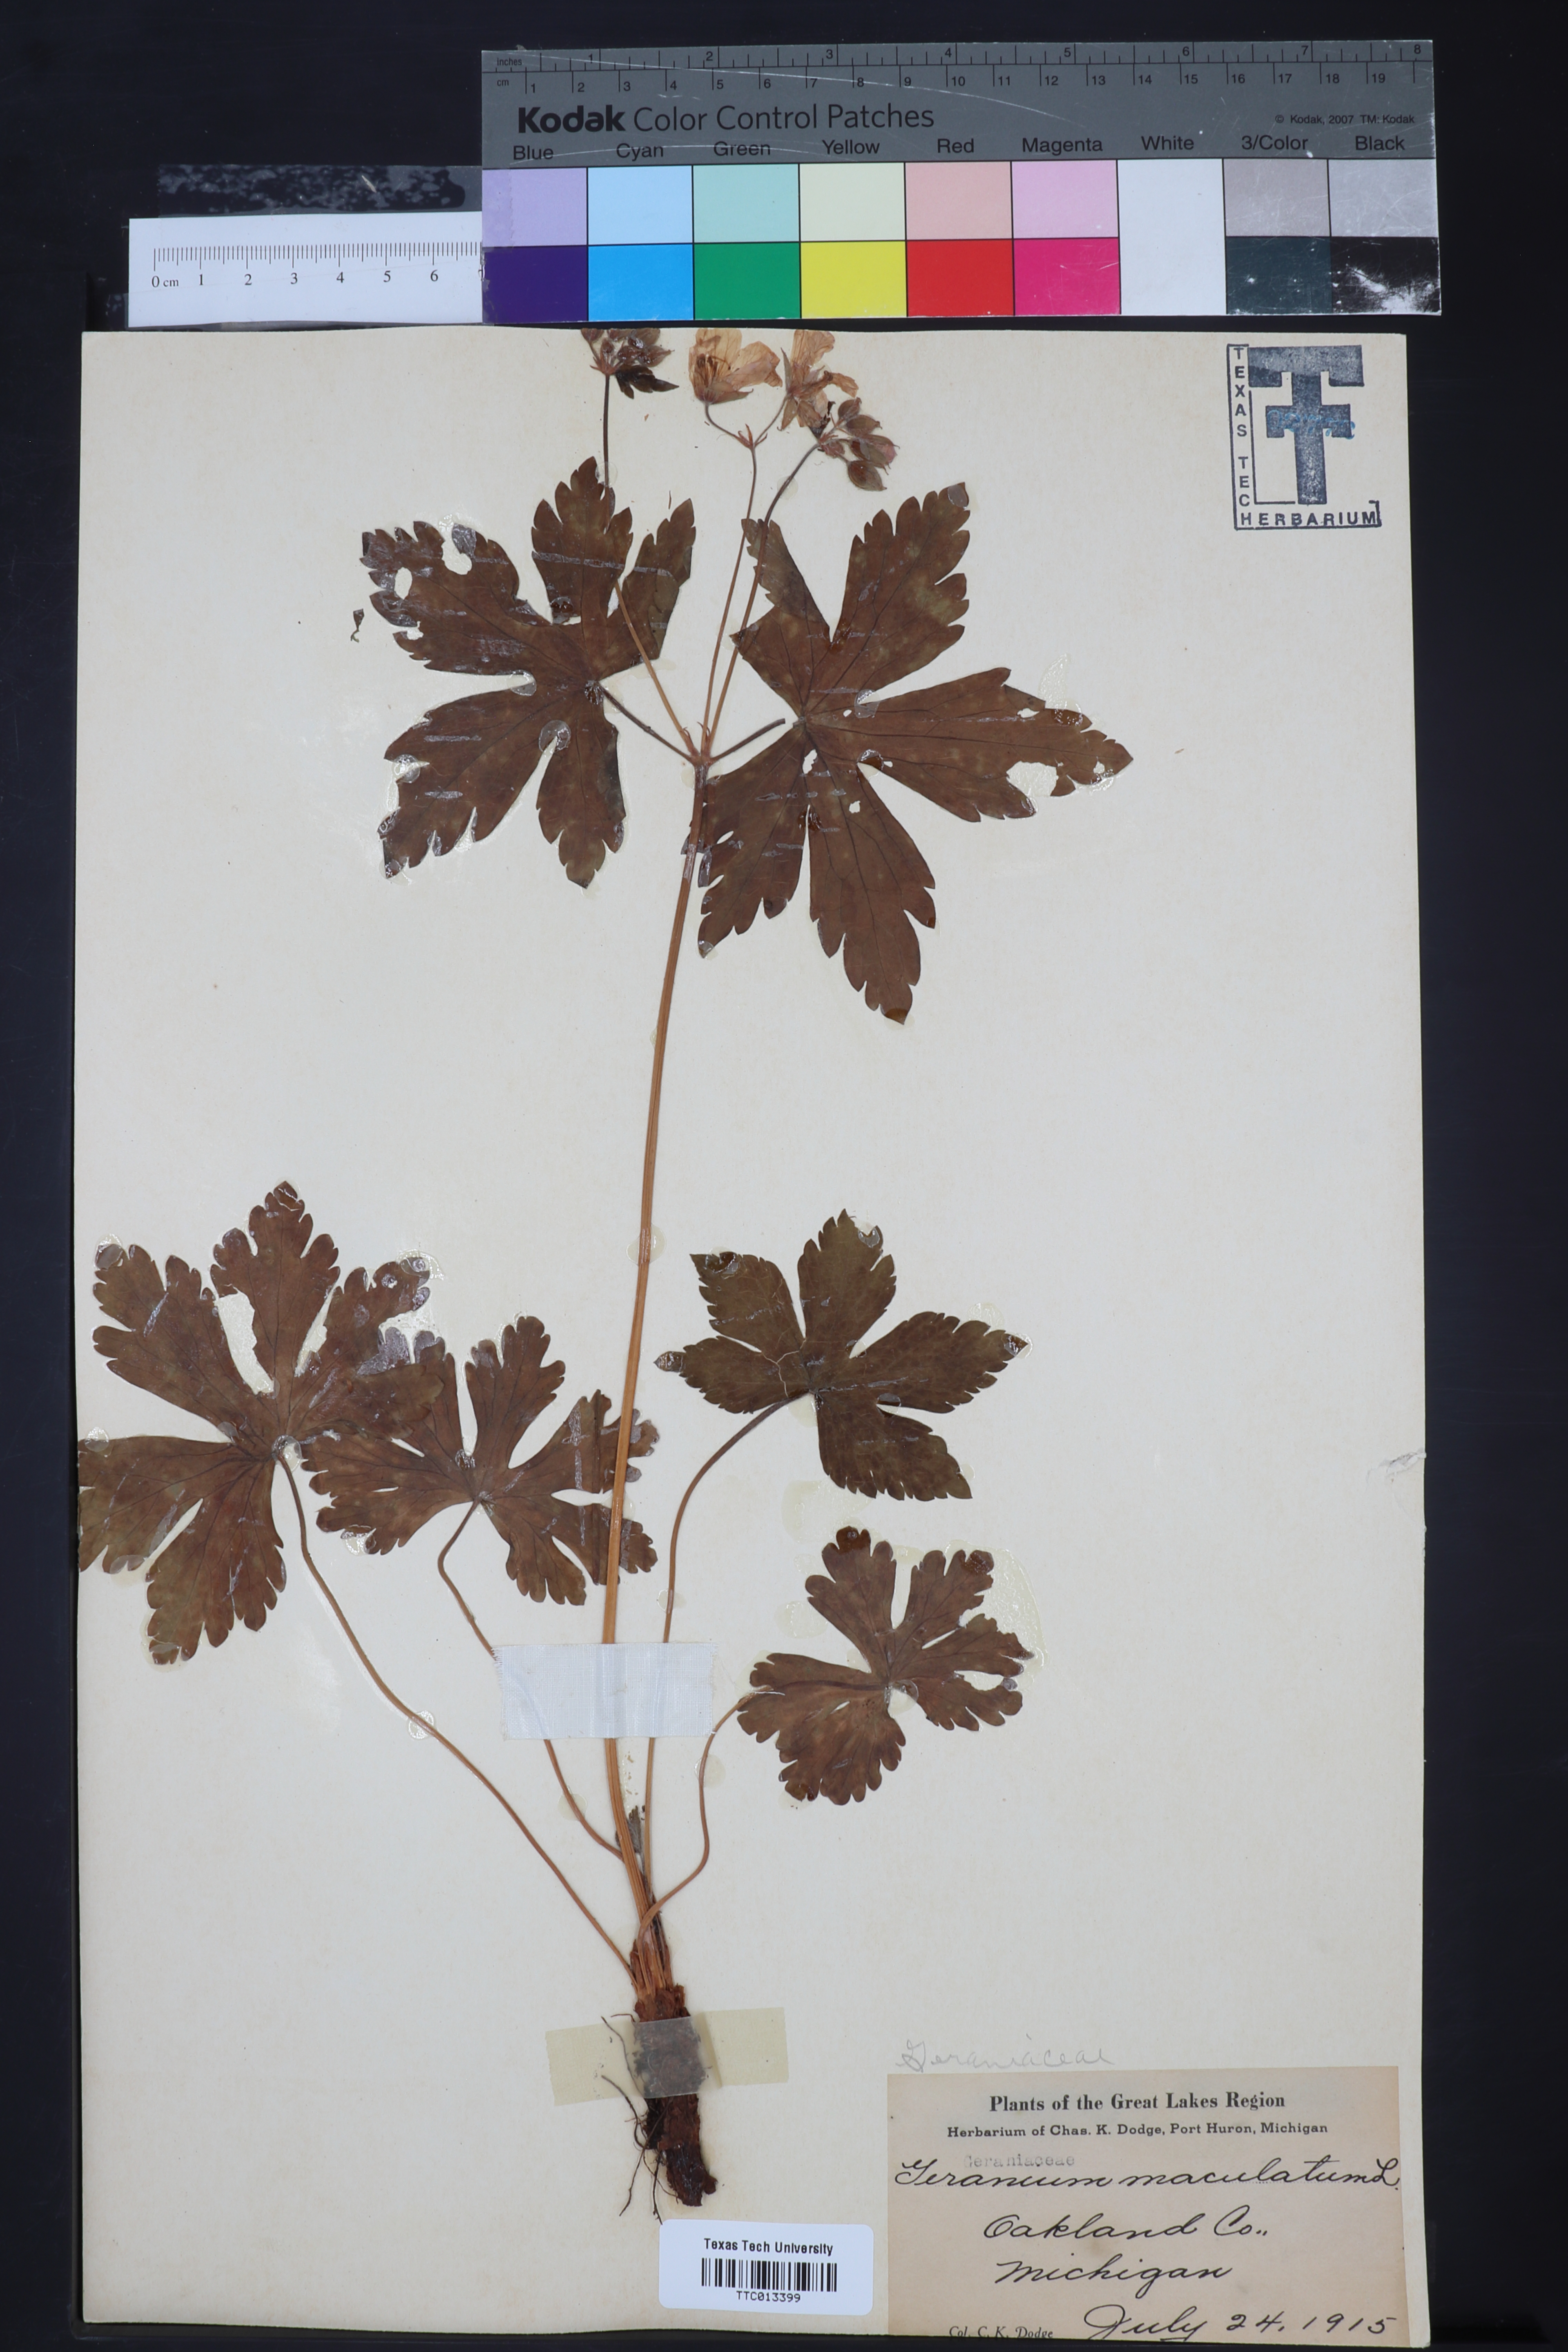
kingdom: Plantae
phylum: Tracheophyta
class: Magnoliopsida
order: Geraniales
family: Geraniaceae
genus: Geranium
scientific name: Geranium maculatum
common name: Spotted geranium
